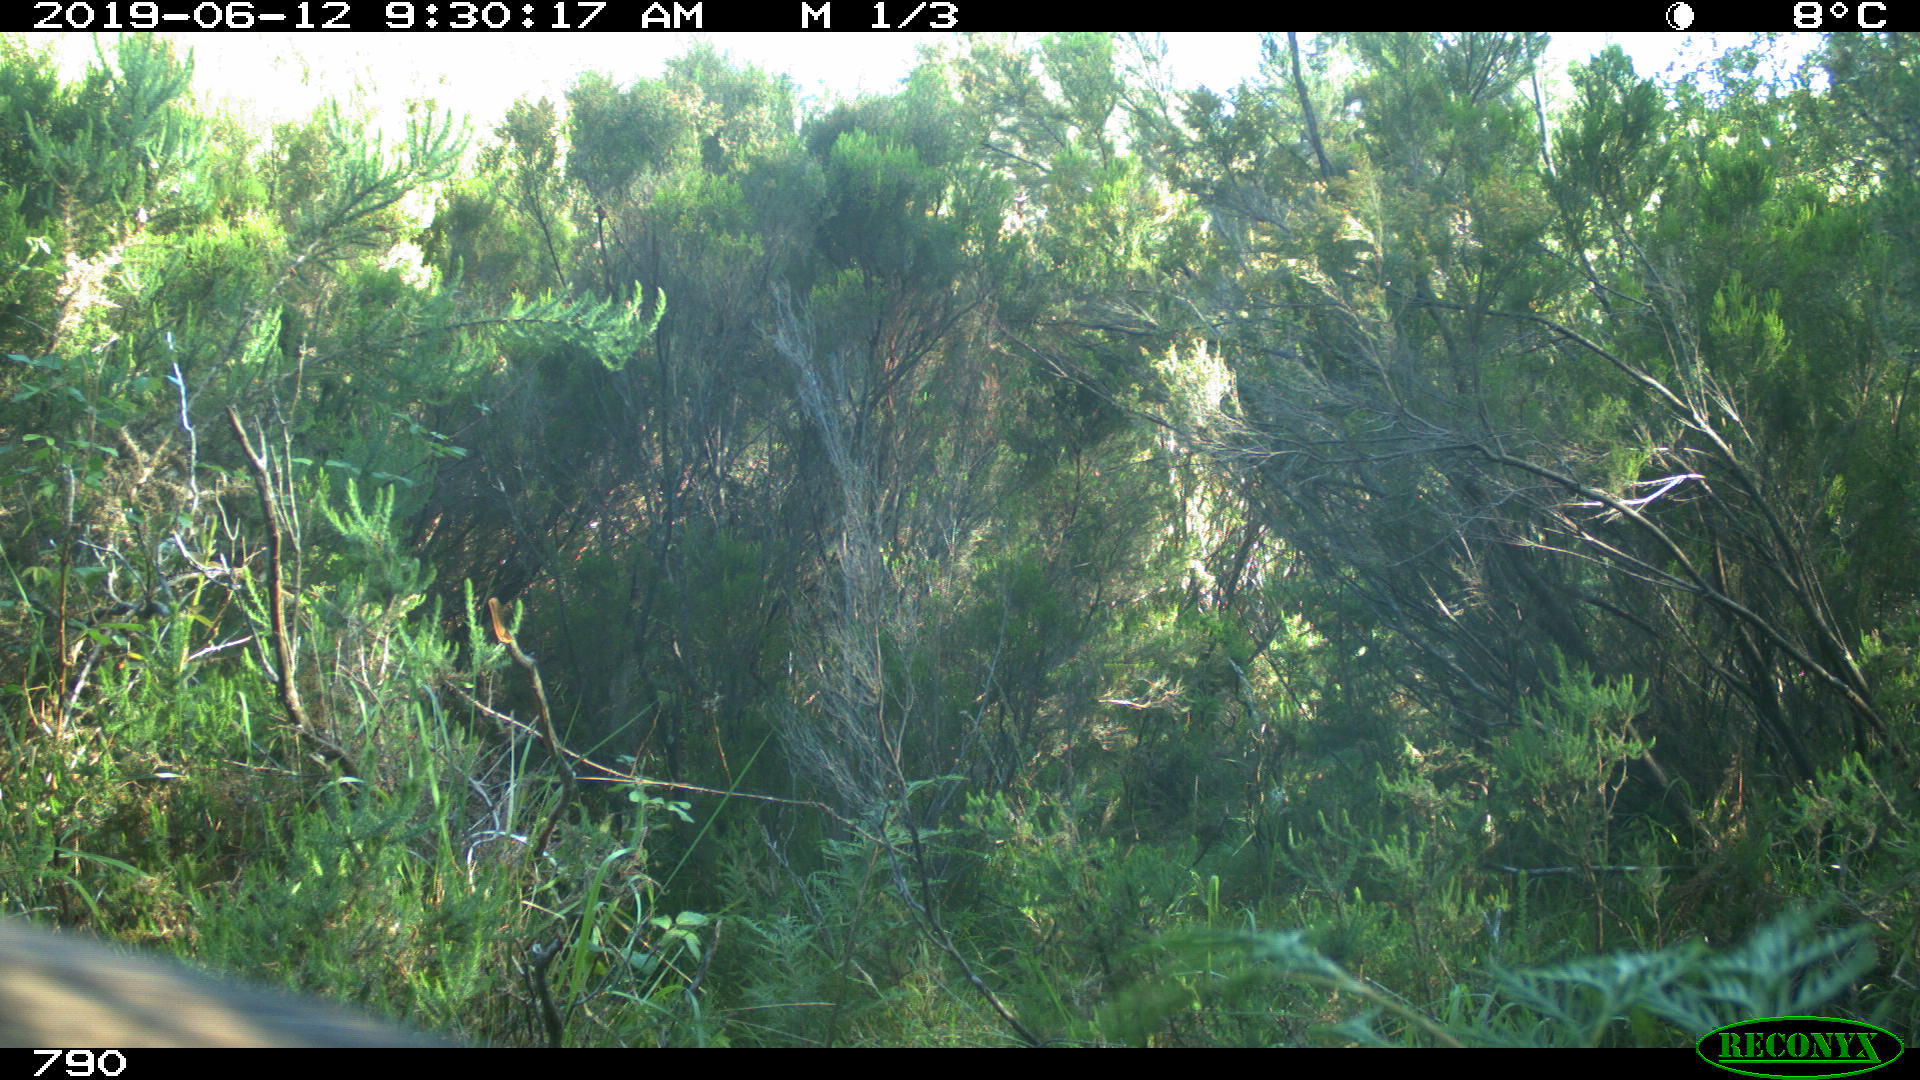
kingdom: Animalia
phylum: Chordata
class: Mammalia
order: Carnivora
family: Canidae
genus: Canis
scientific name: Canis lupus
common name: Gray wolf
